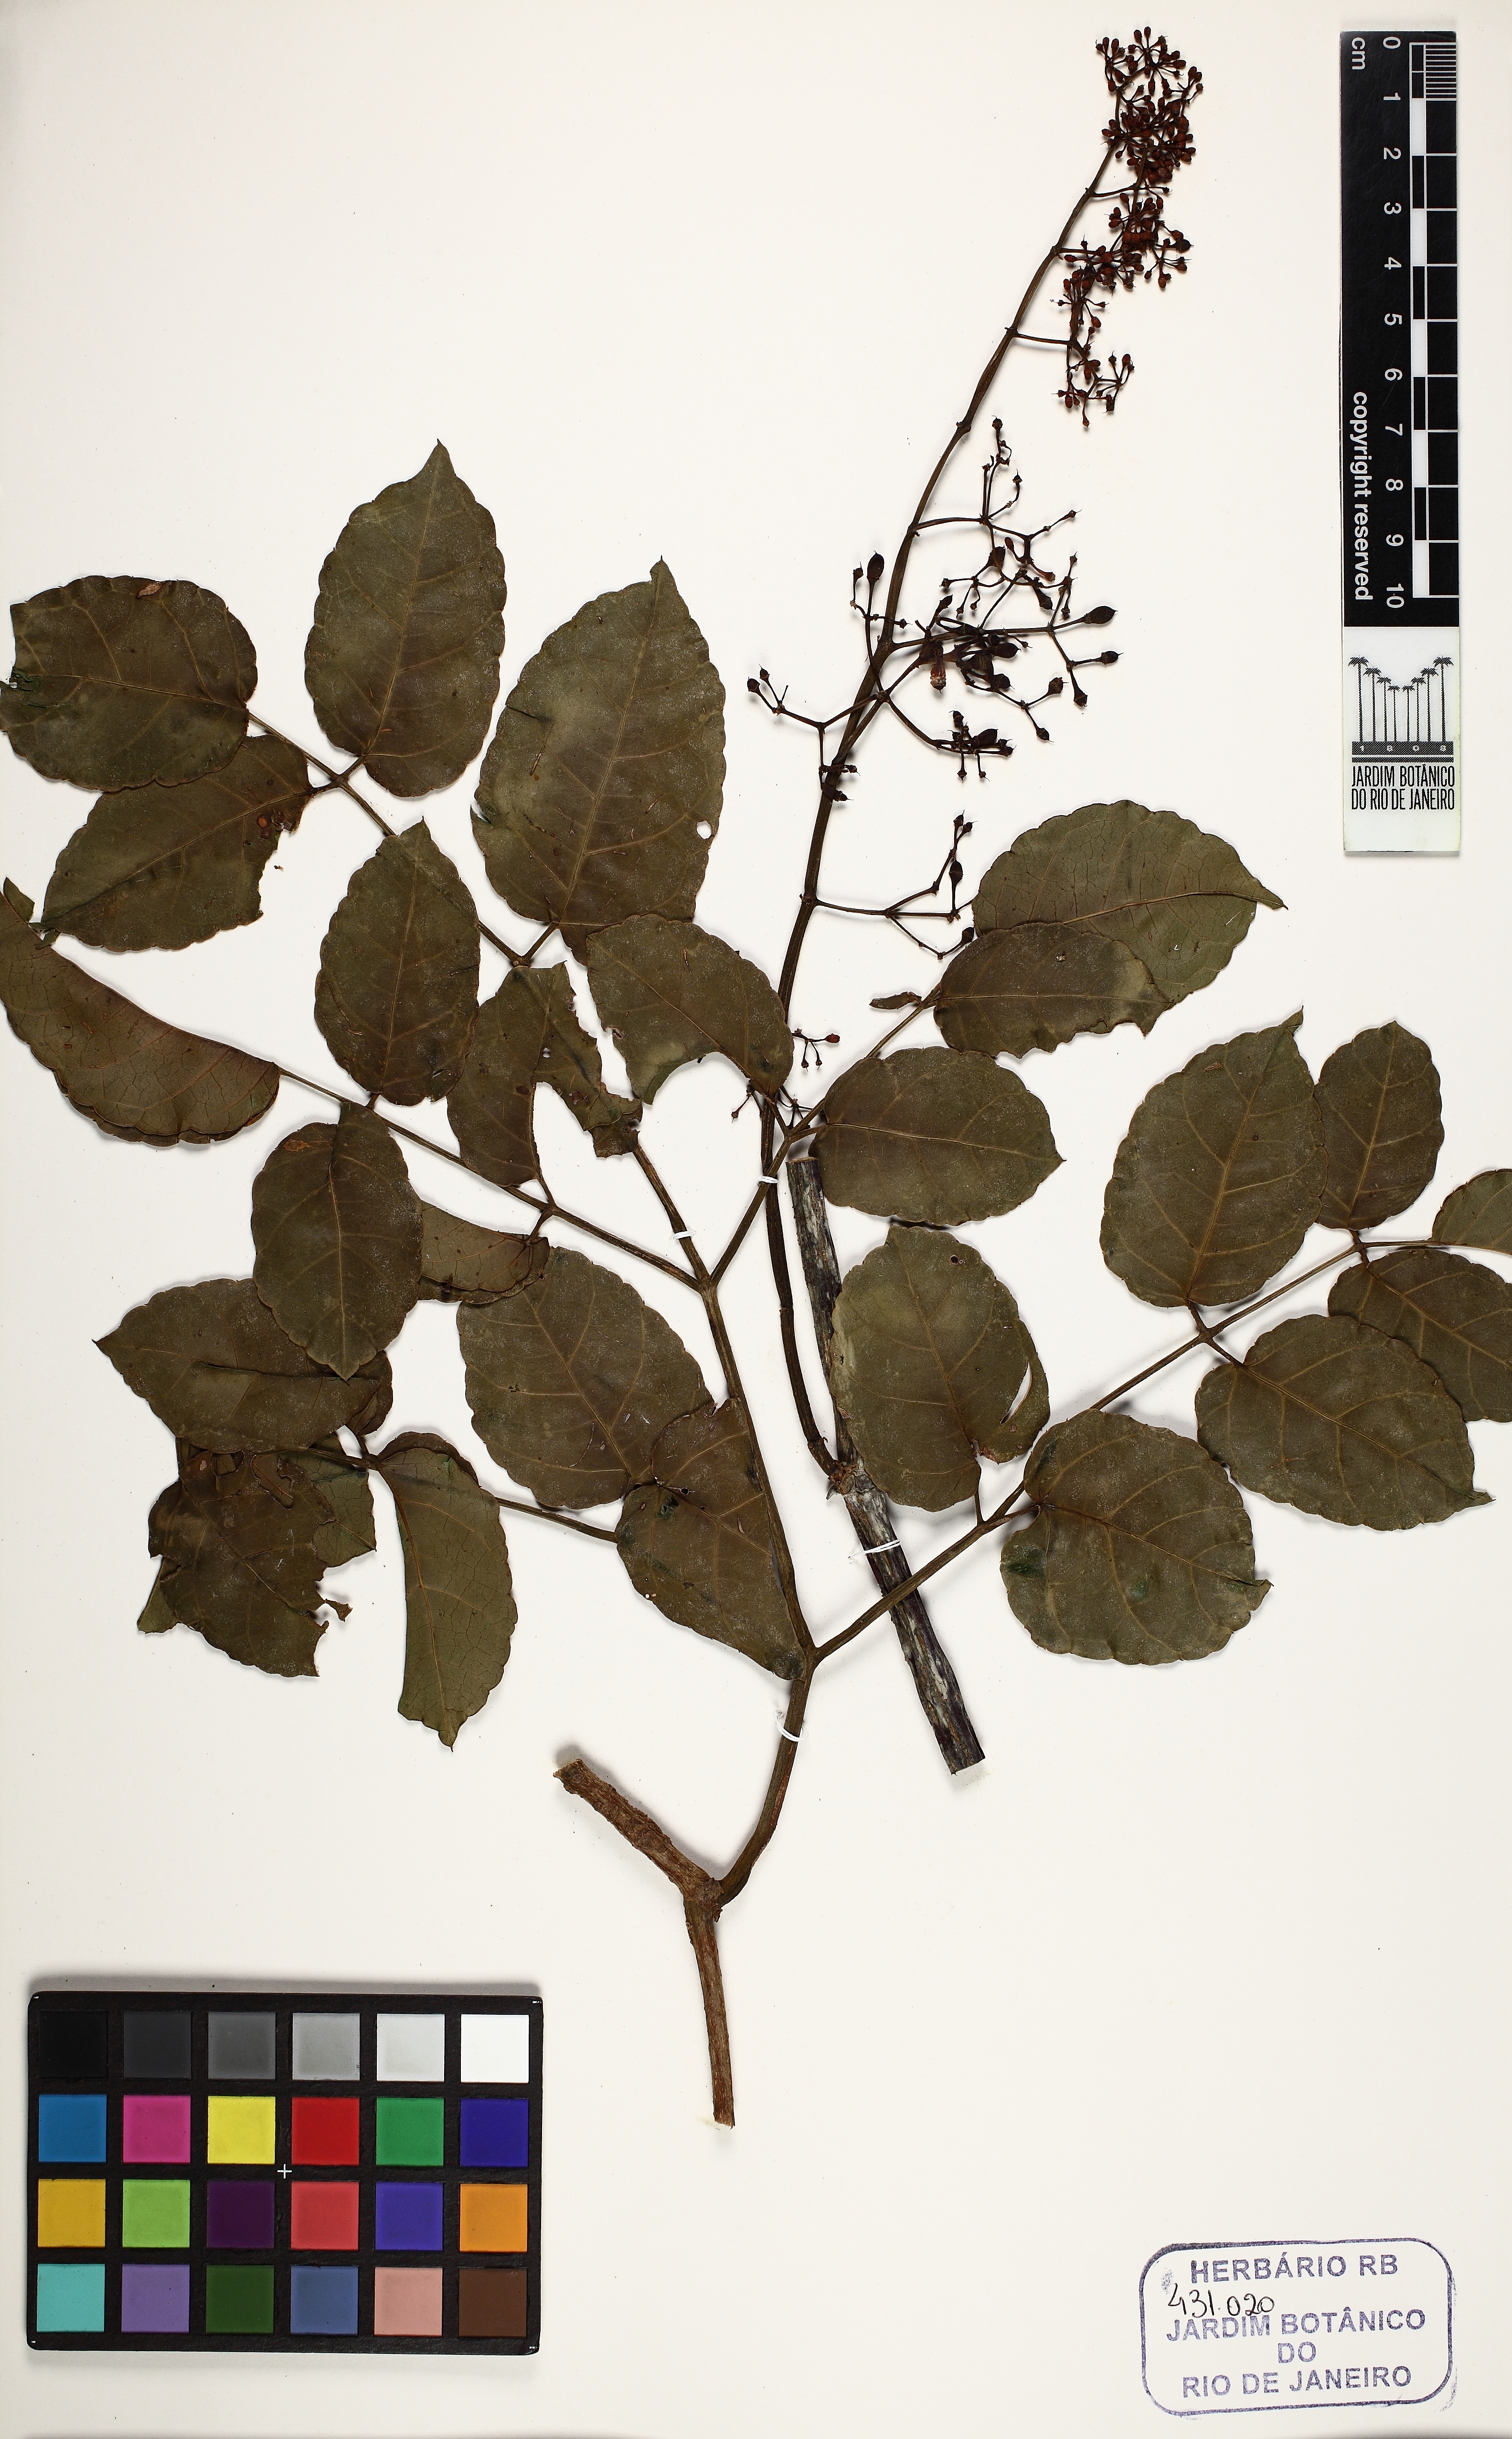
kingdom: Plantae
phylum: Tracheophyta
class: Magnoliopsida
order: Vitales
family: Vitaceae
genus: Cissus
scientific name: Cissus paullinifolia
